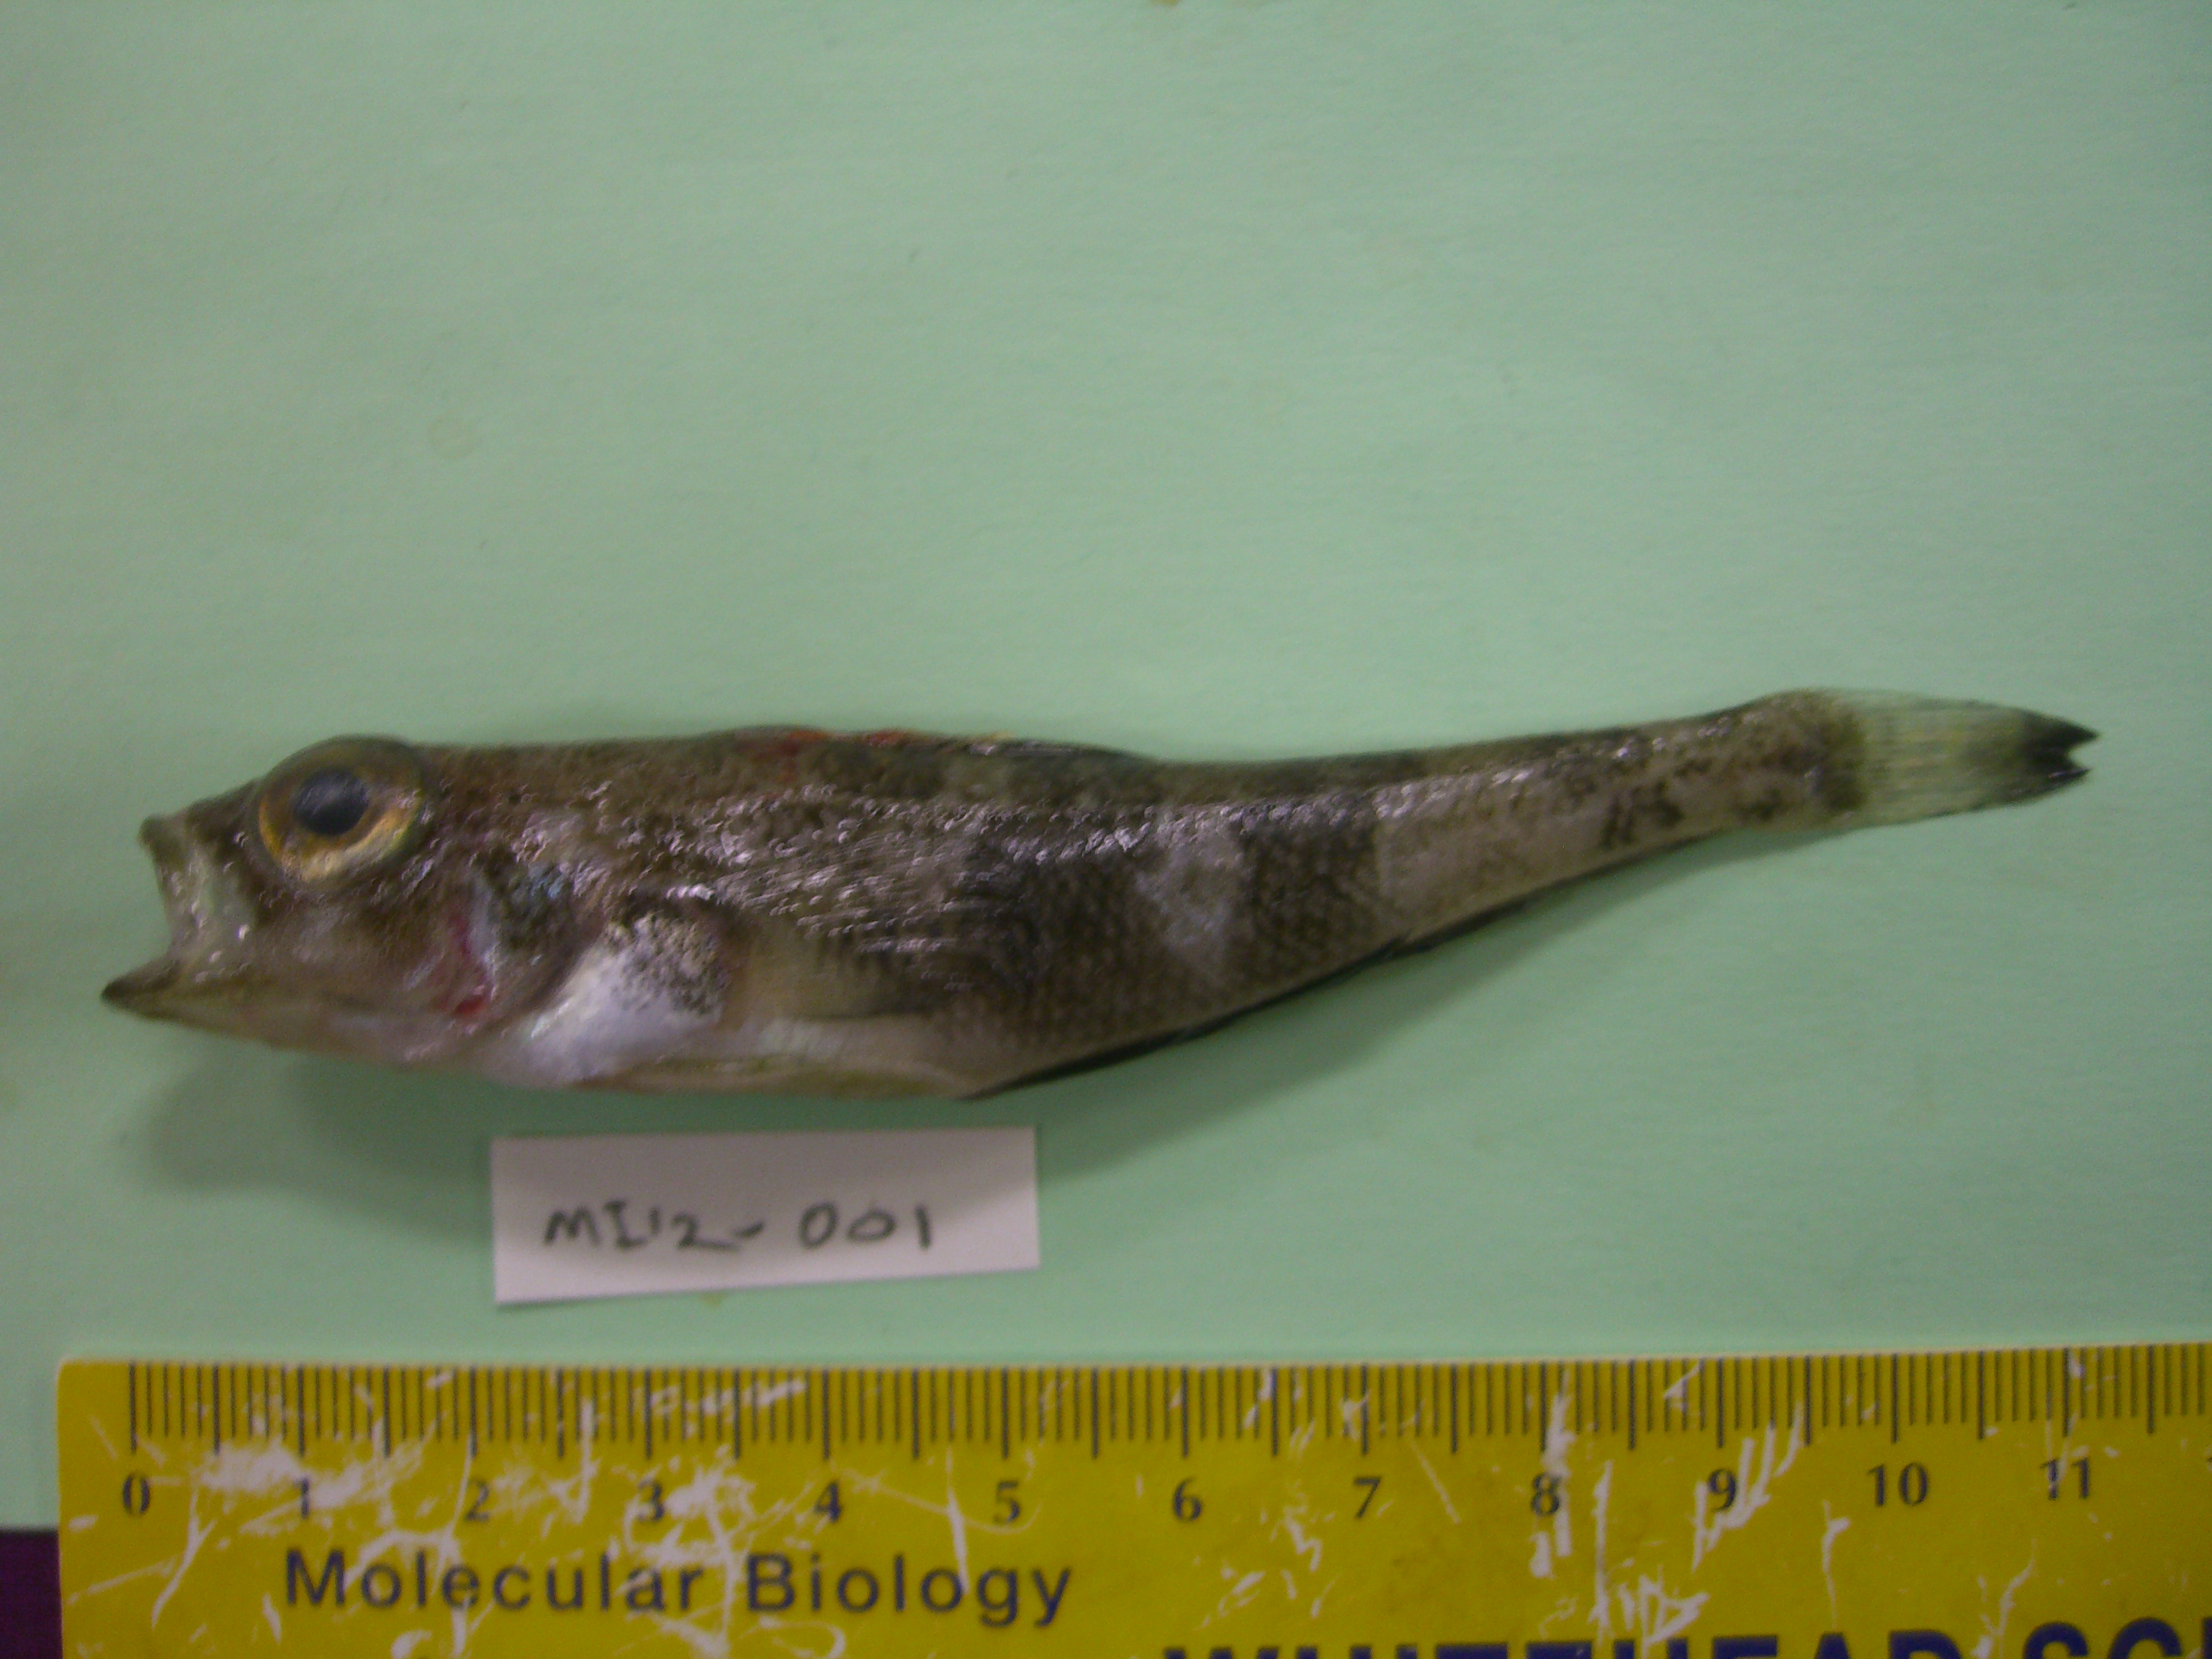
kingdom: Animalia
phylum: Chordata
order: Perciformes
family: Nototheniidae
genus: Nototheniops
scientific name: Nototheniops larseni
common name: Painted notie
